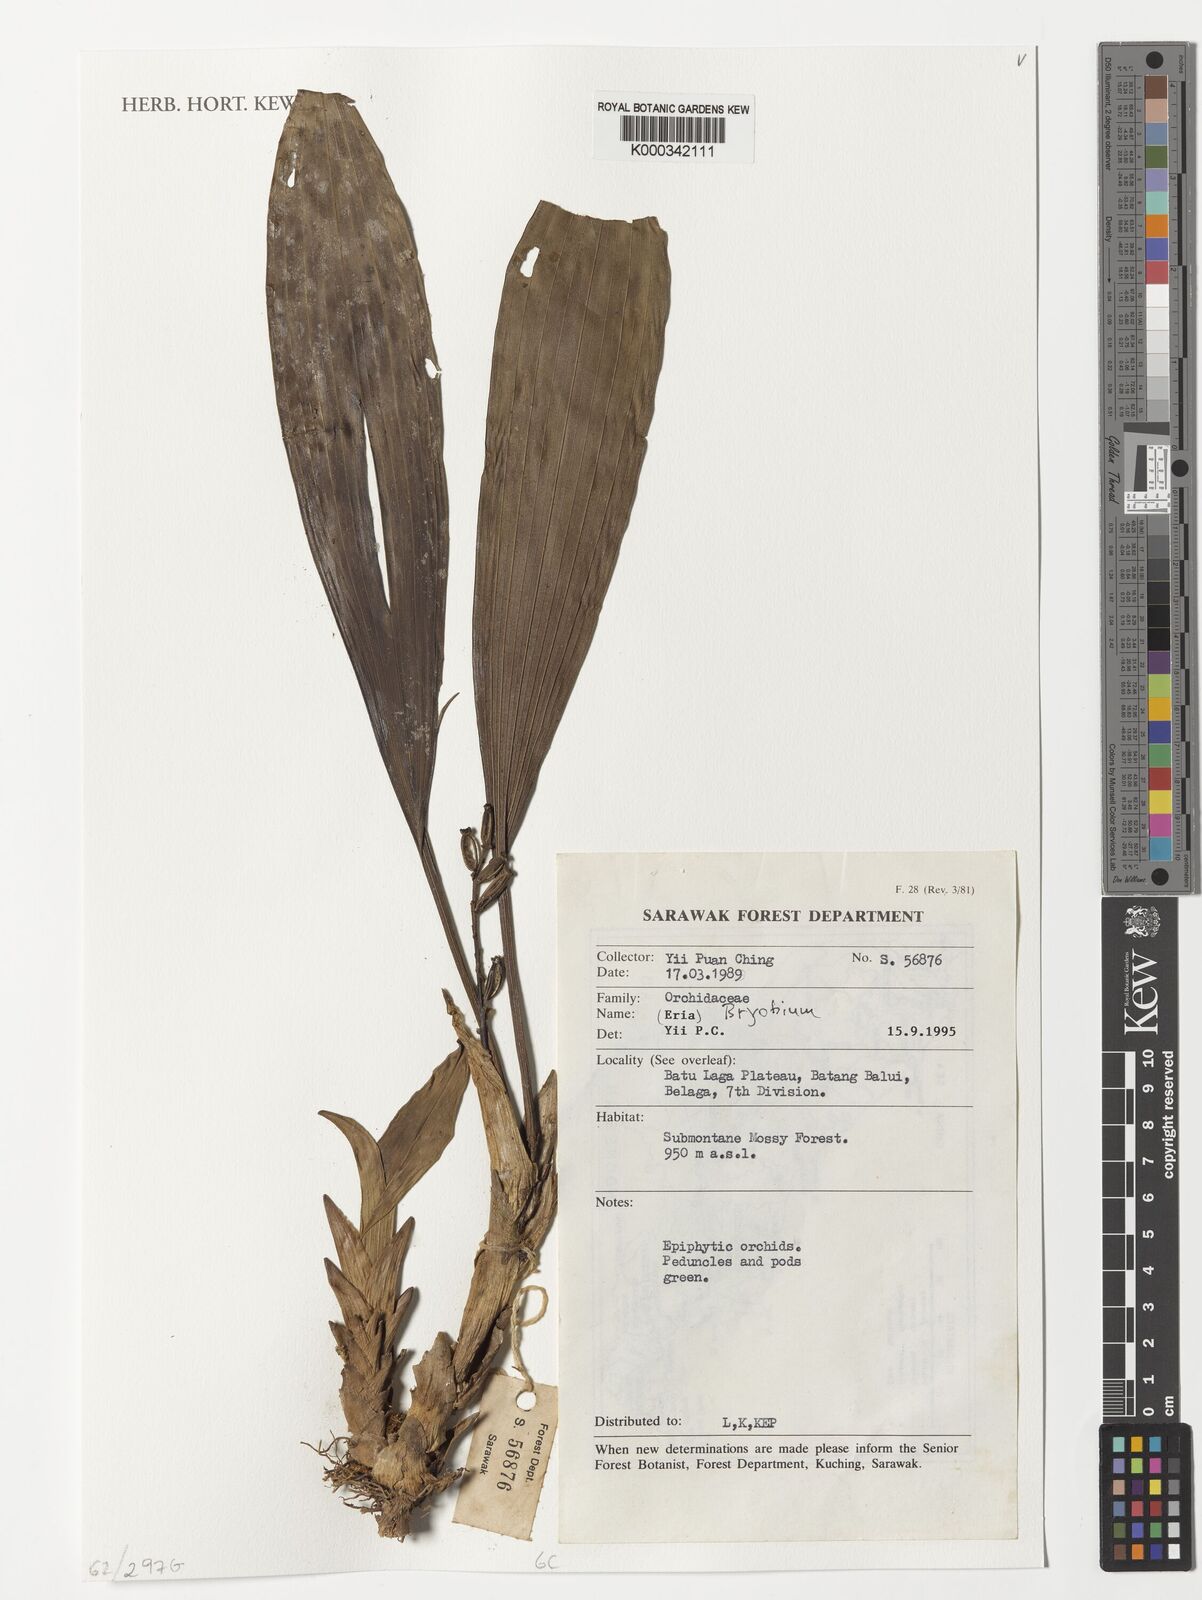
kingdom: Plantae
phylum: Tracheophyta
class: Liliopsida
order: Asparagales
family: Orchidaceae
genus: Bryobium
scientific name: Bryobium
